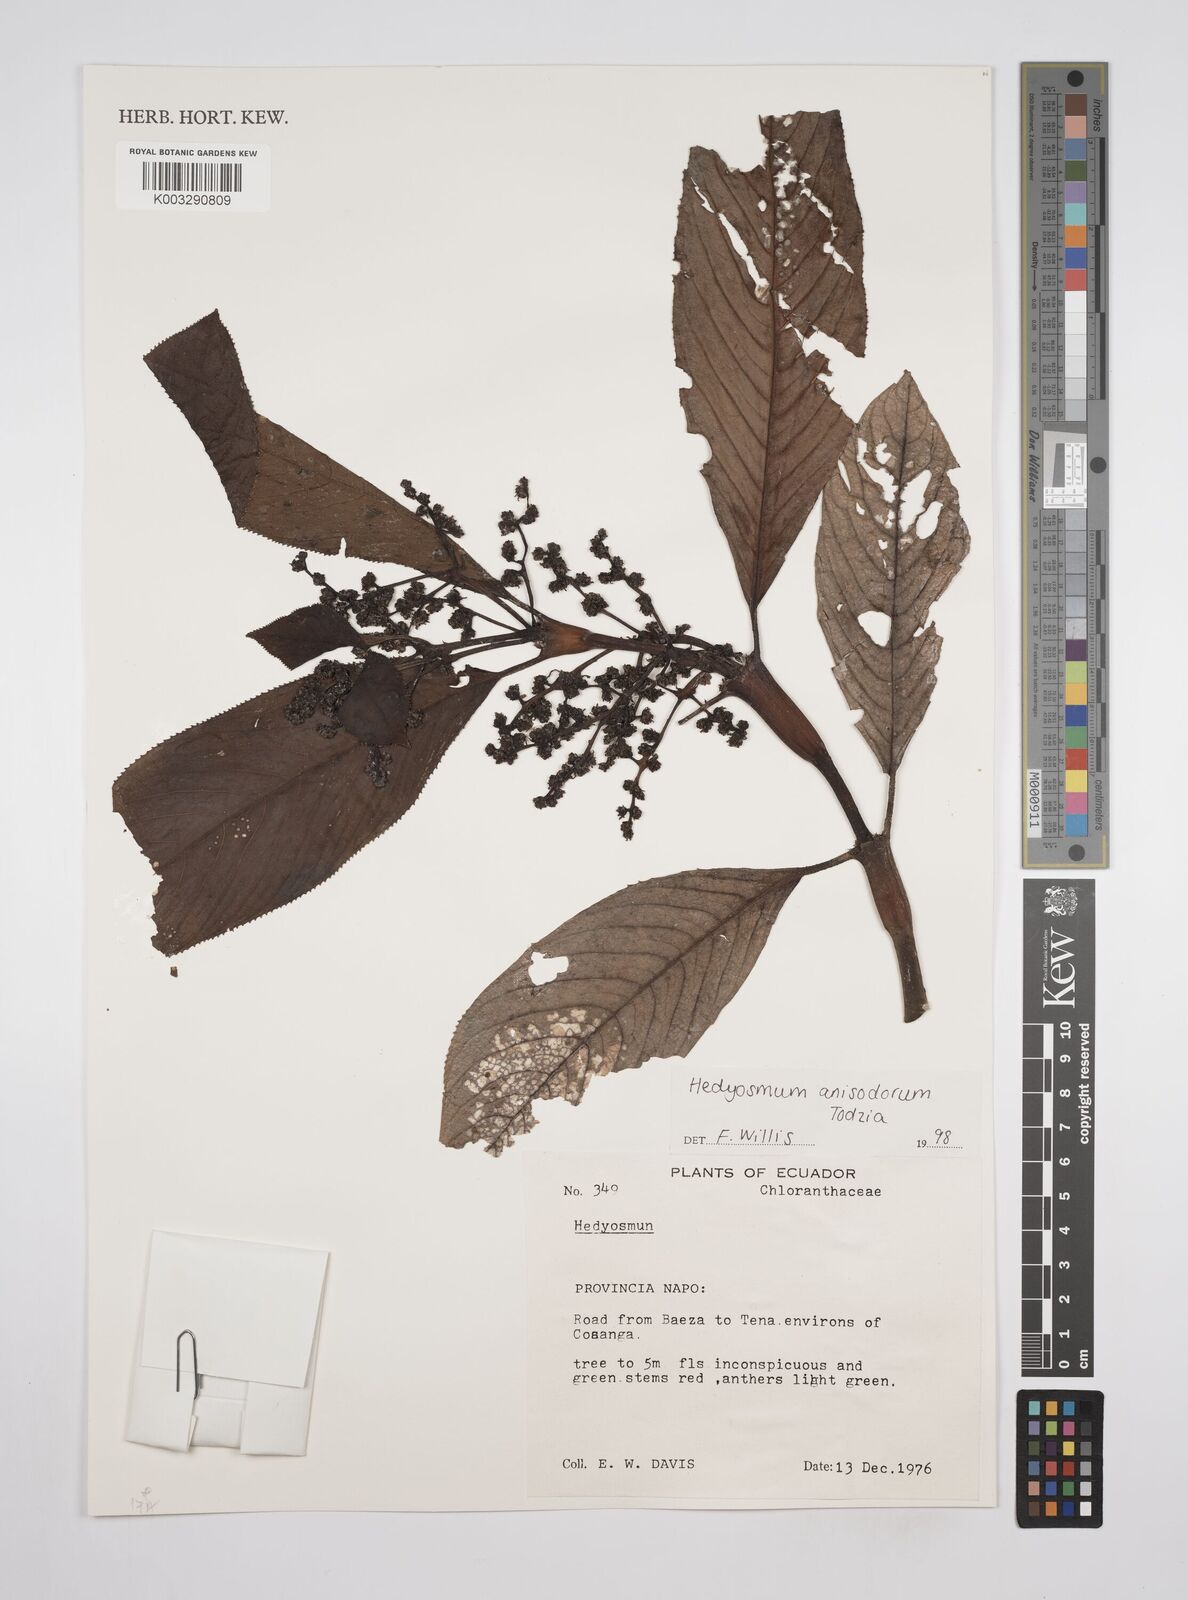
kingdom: Plantae
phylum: Tracheophyta
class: Magnoliopsida
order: Chloranthales
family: Chloranthaceae
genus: Hedyosmum
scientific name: Hedyosmum anisodorum
